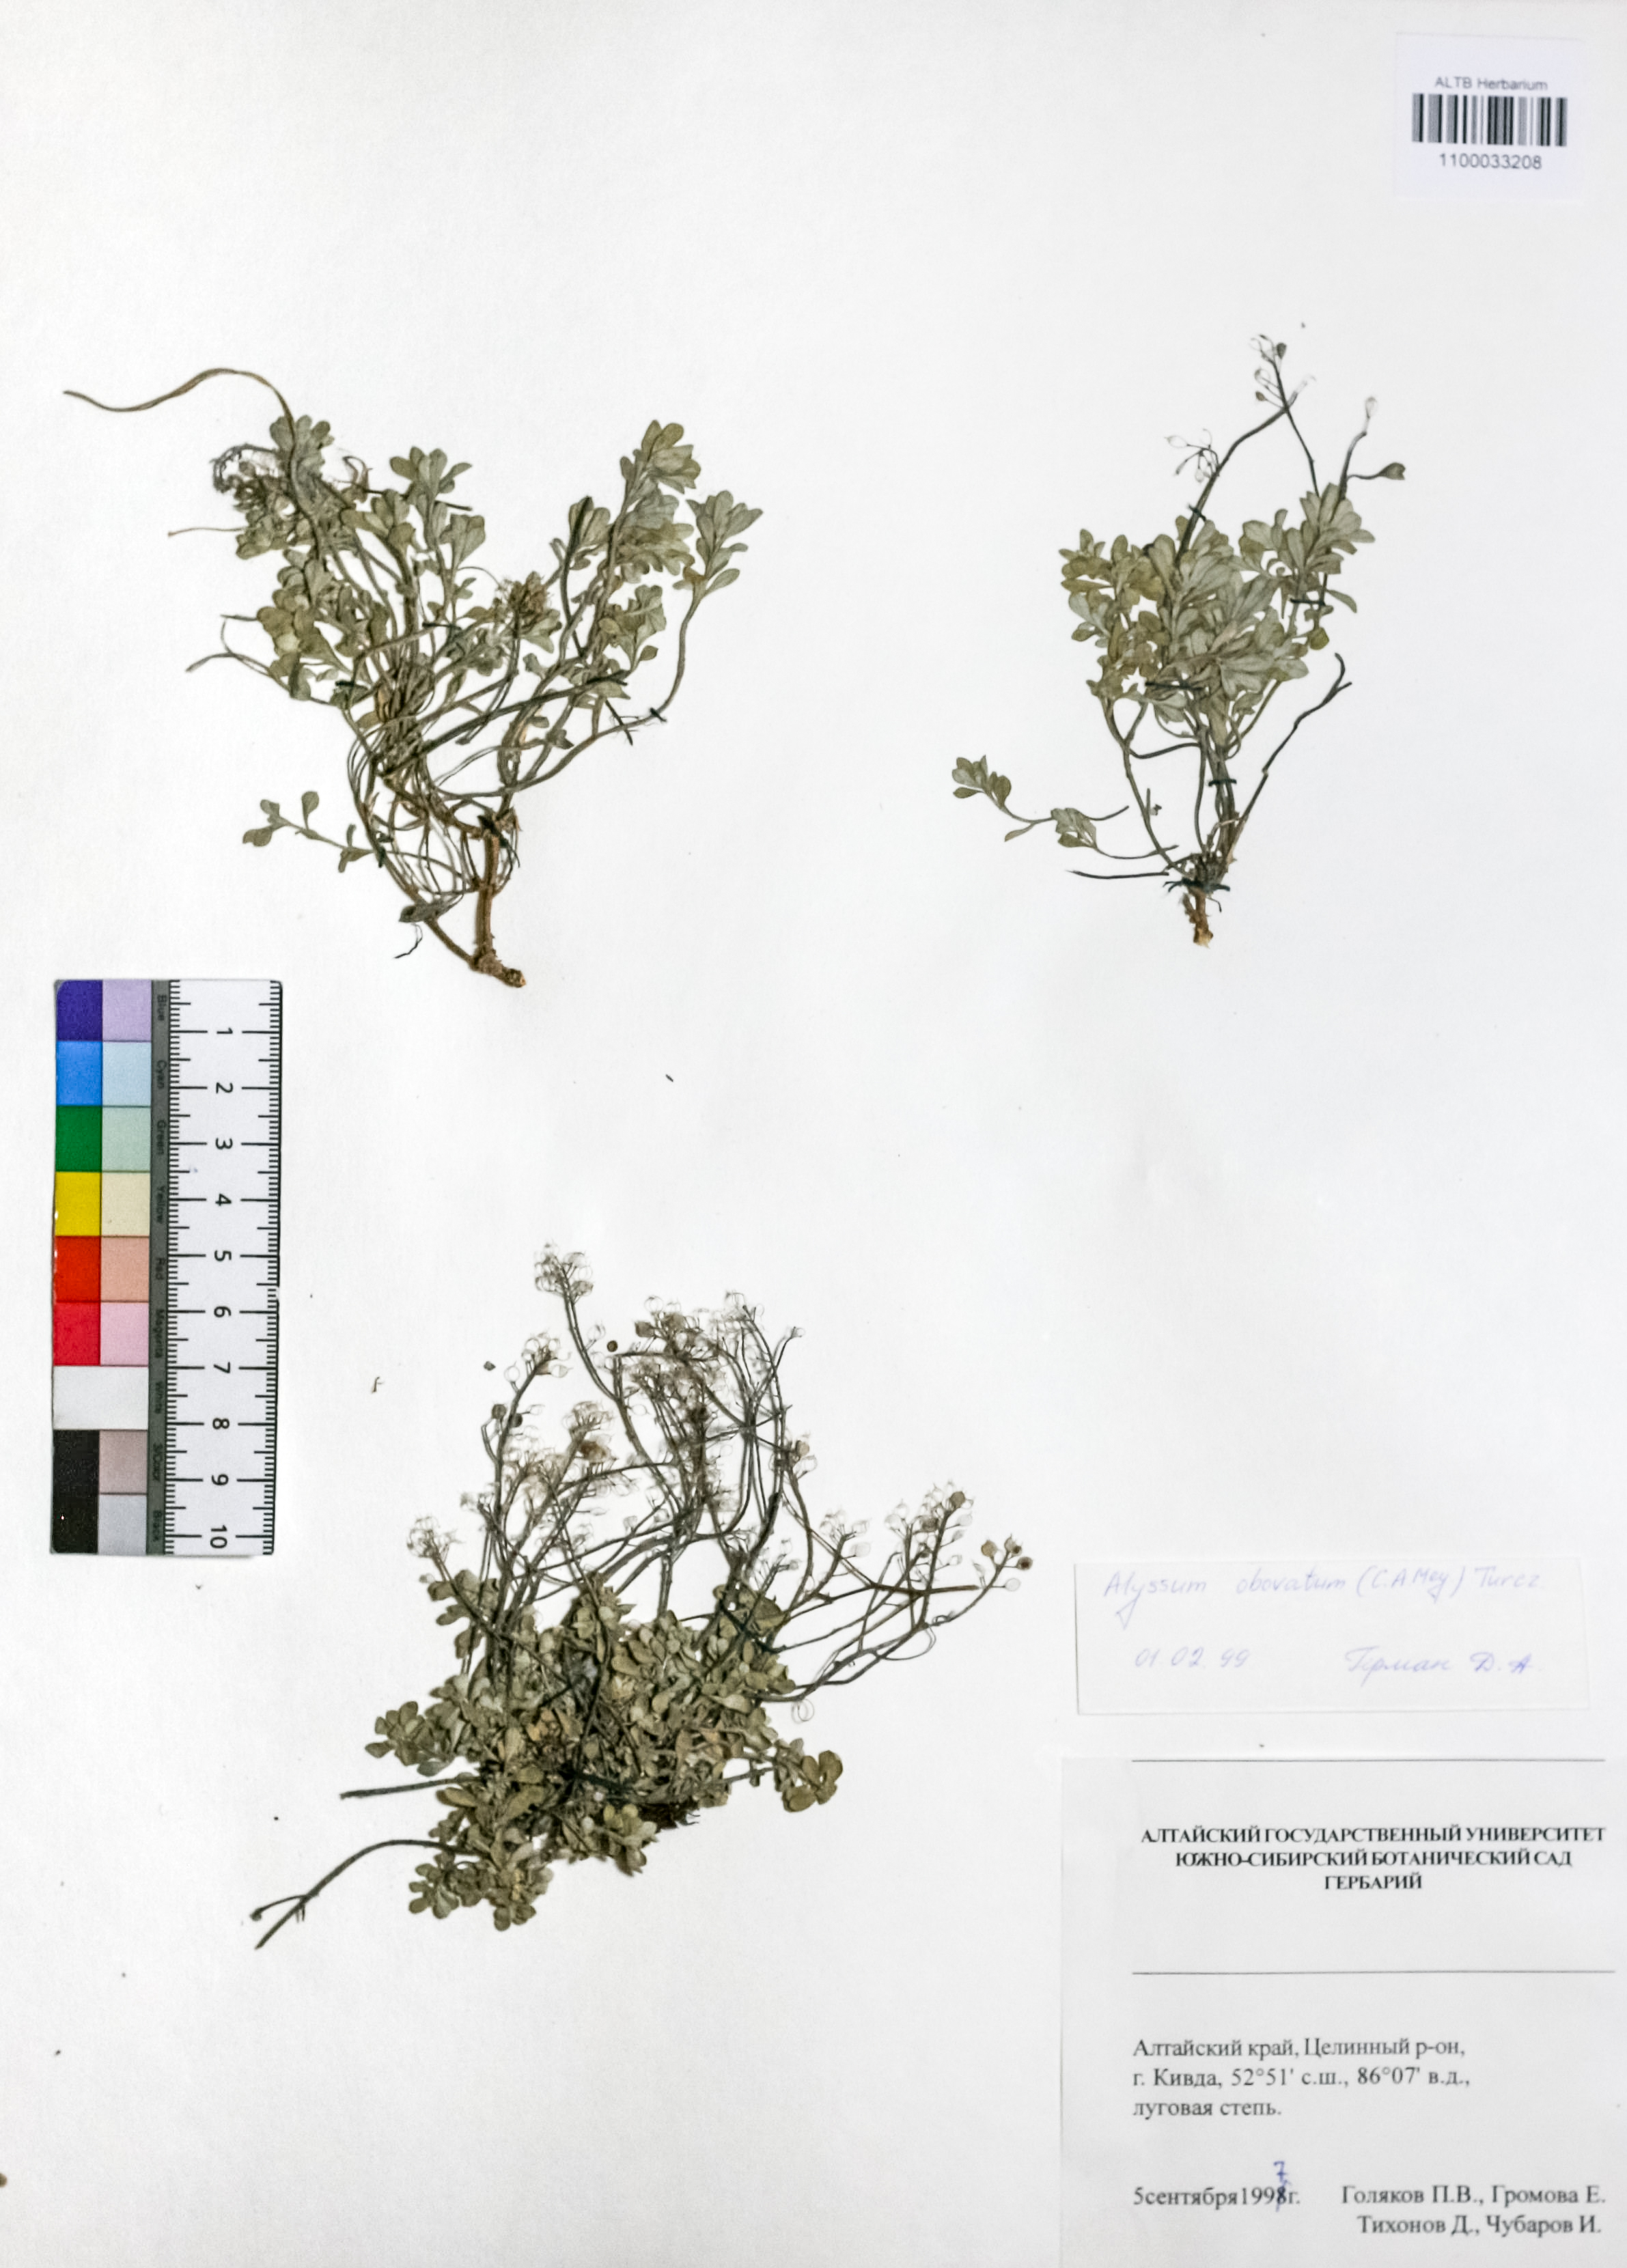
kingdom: Plantae
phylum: Tracheophyta
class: Magnoliopsida
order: Brassicales
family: Brassicaceae
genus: Odontarrhena
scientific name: Odontarrhena obovata
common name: American alyssum
